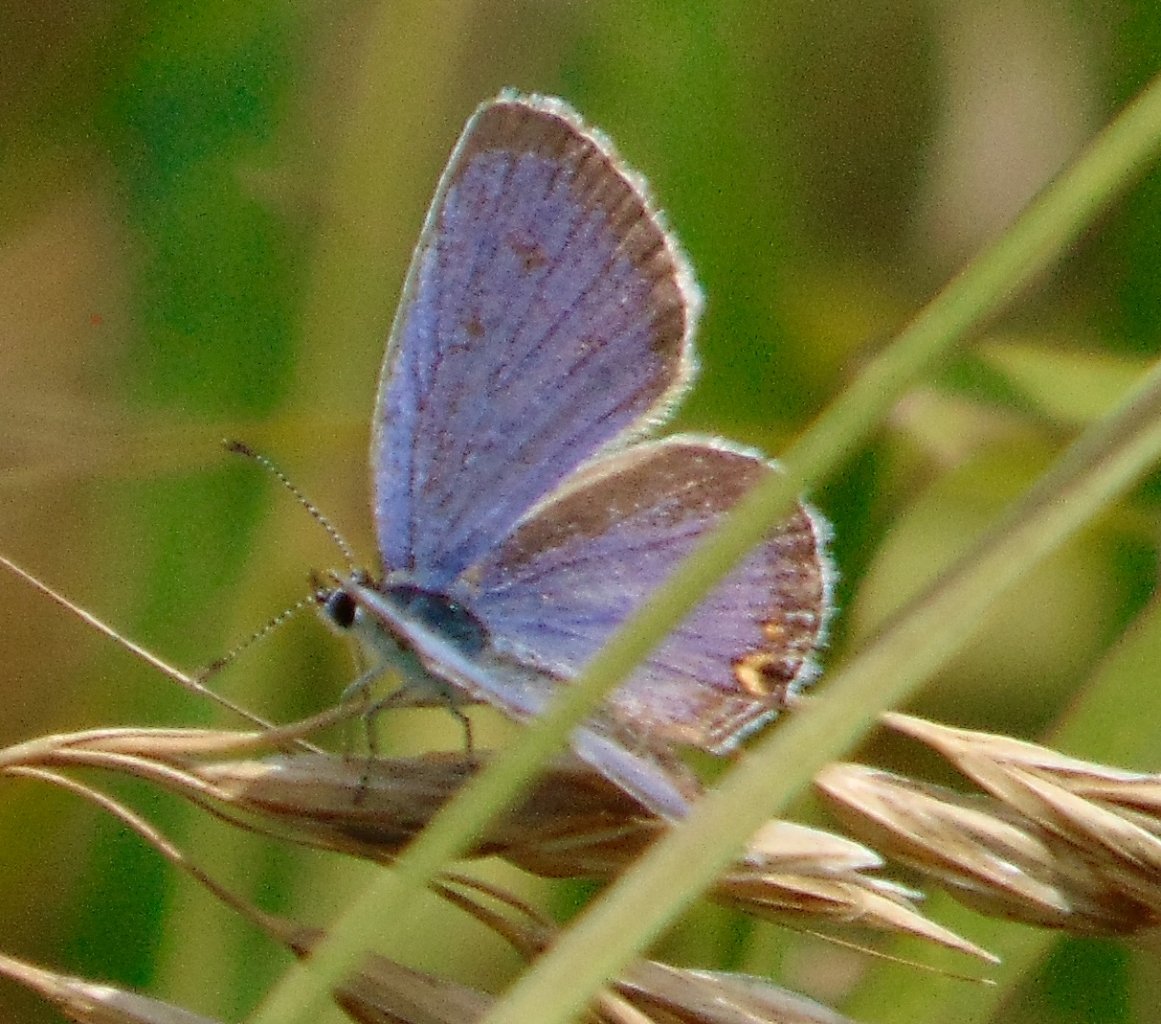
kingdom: Animalia
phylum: Arthropoda
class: Insecta
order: Lepidoptera
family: Lycaenidae
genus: Elkalyce
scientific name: Elkalyce comyntas
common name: Eastern Tailed-Blue
